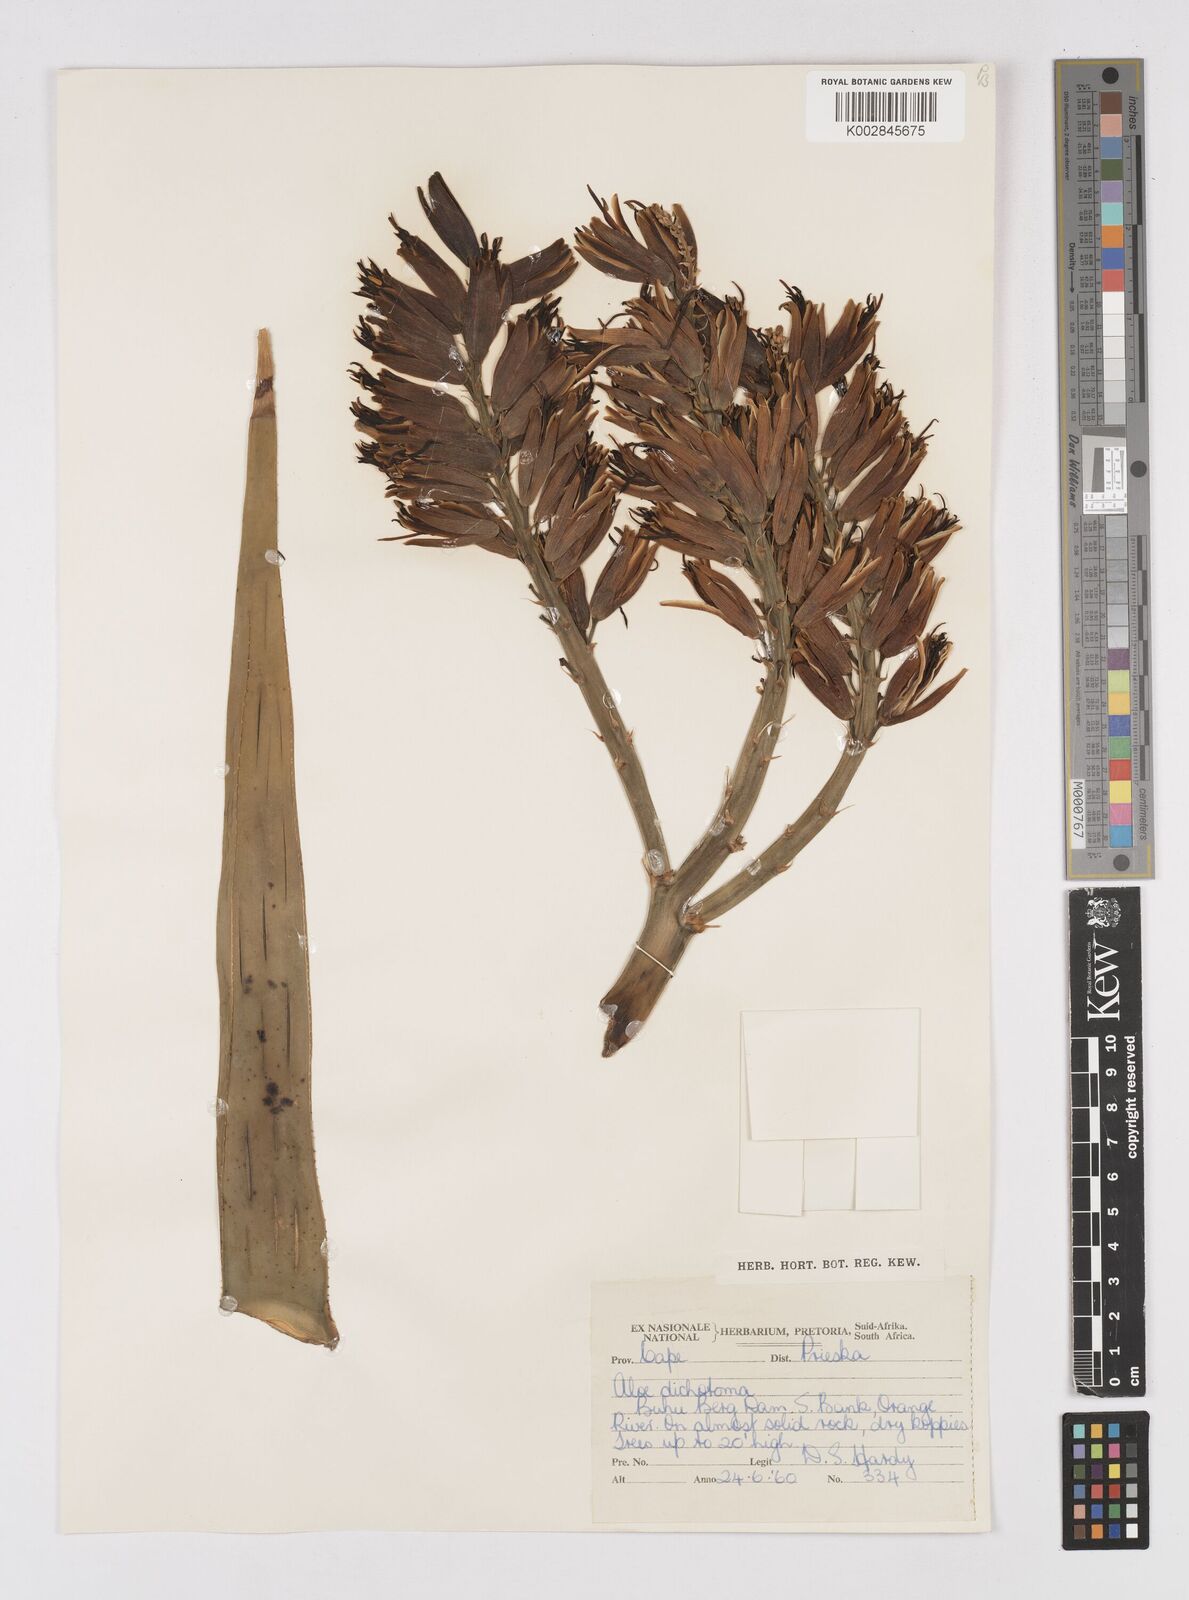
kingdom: Plantae
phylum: Tracheophyta
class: Liliopsida
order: Asparagales
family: Asphodelaceae
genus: Aloidendron
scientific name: Aloidendron dichotomum
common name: Quiver tree
